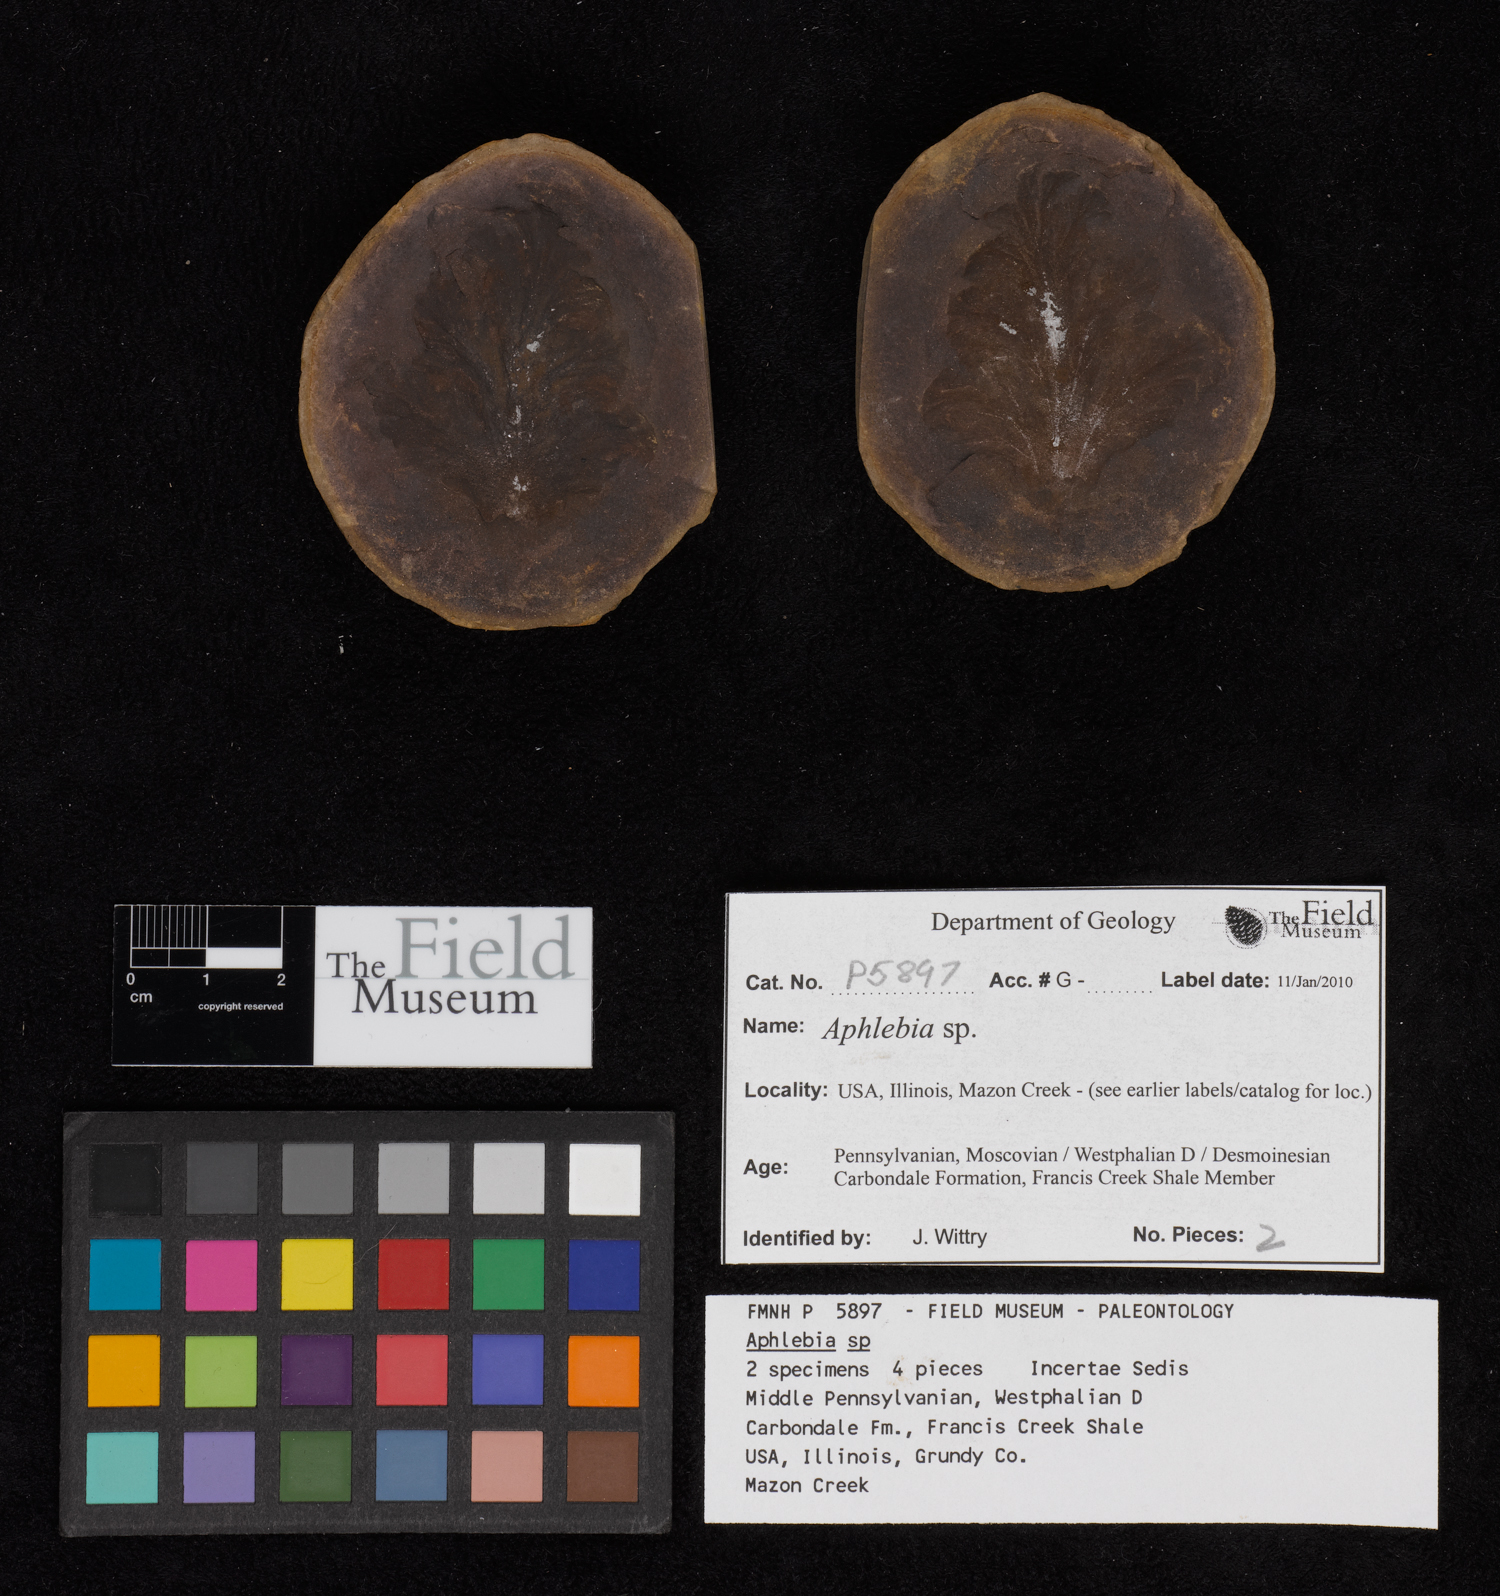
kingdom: Plantae
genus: Rhacophyllum
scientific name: Rhacophyllum
